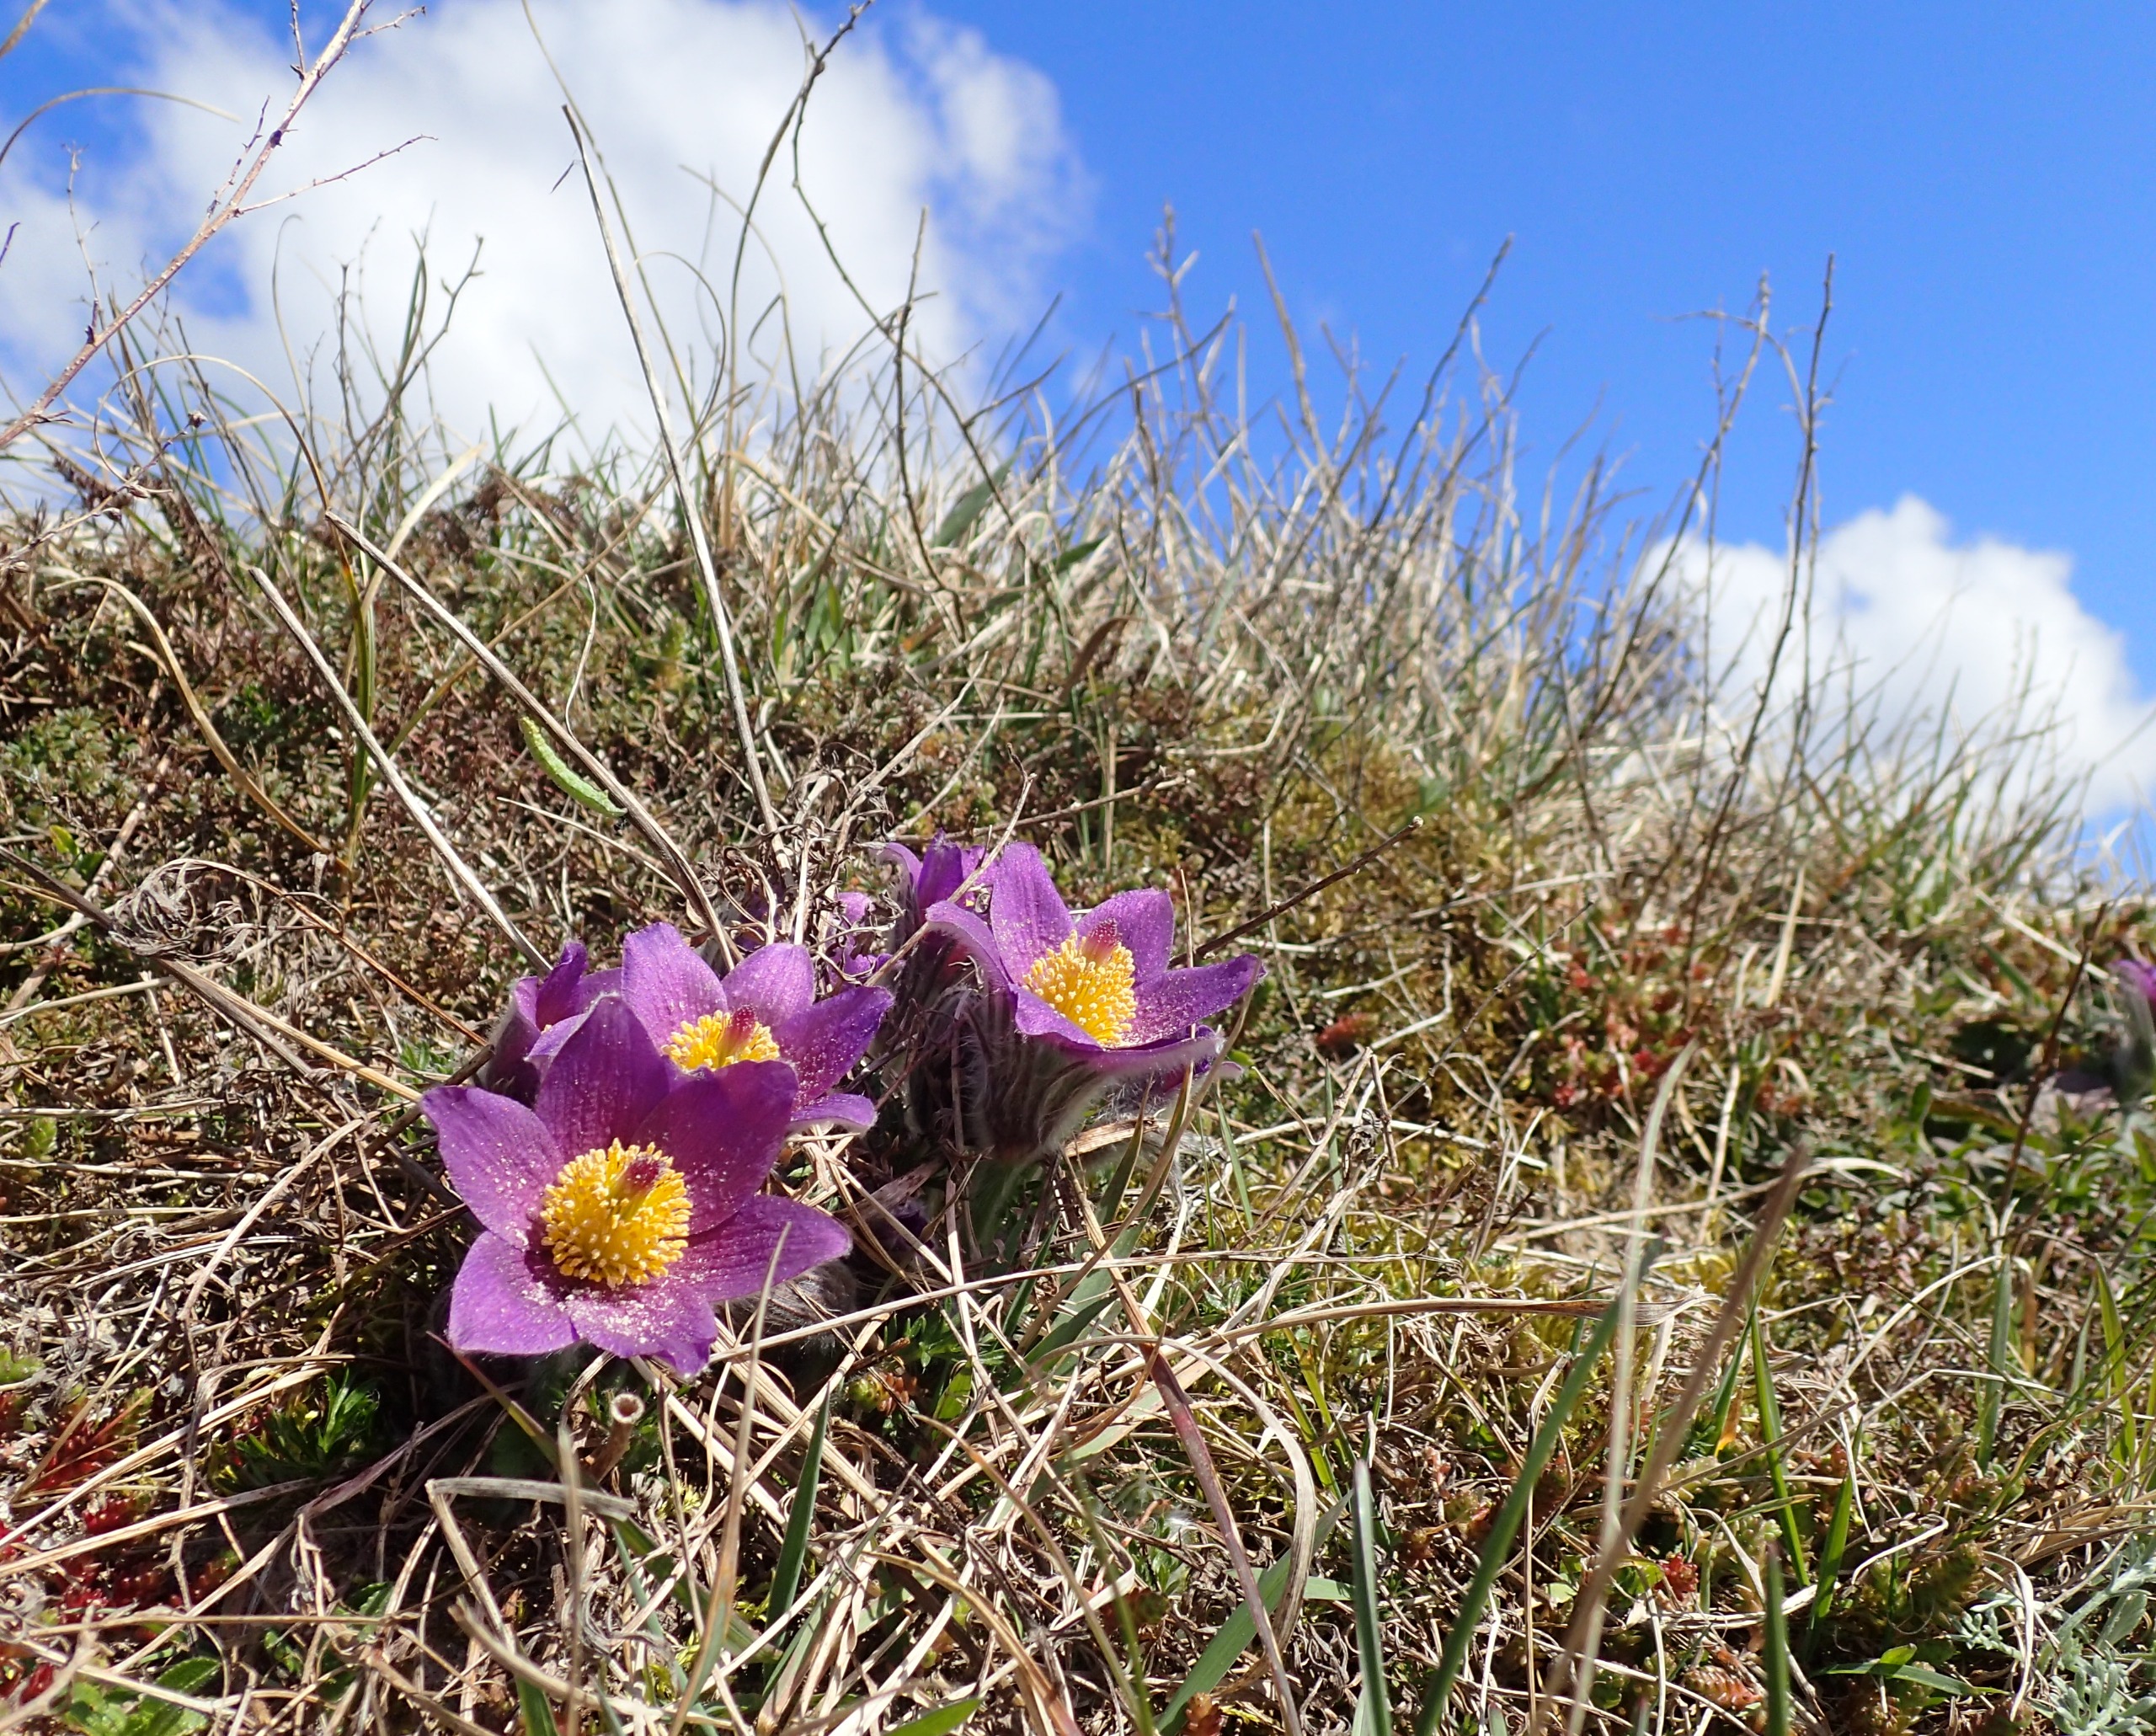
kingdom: Plantae
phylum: Tracheophyta
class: Magnoliopsida
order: Ranunculales
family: Ranunculaceae
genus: Pulsatilla
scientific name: Pulsatilla vulgaris
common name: Opret kobjælde
